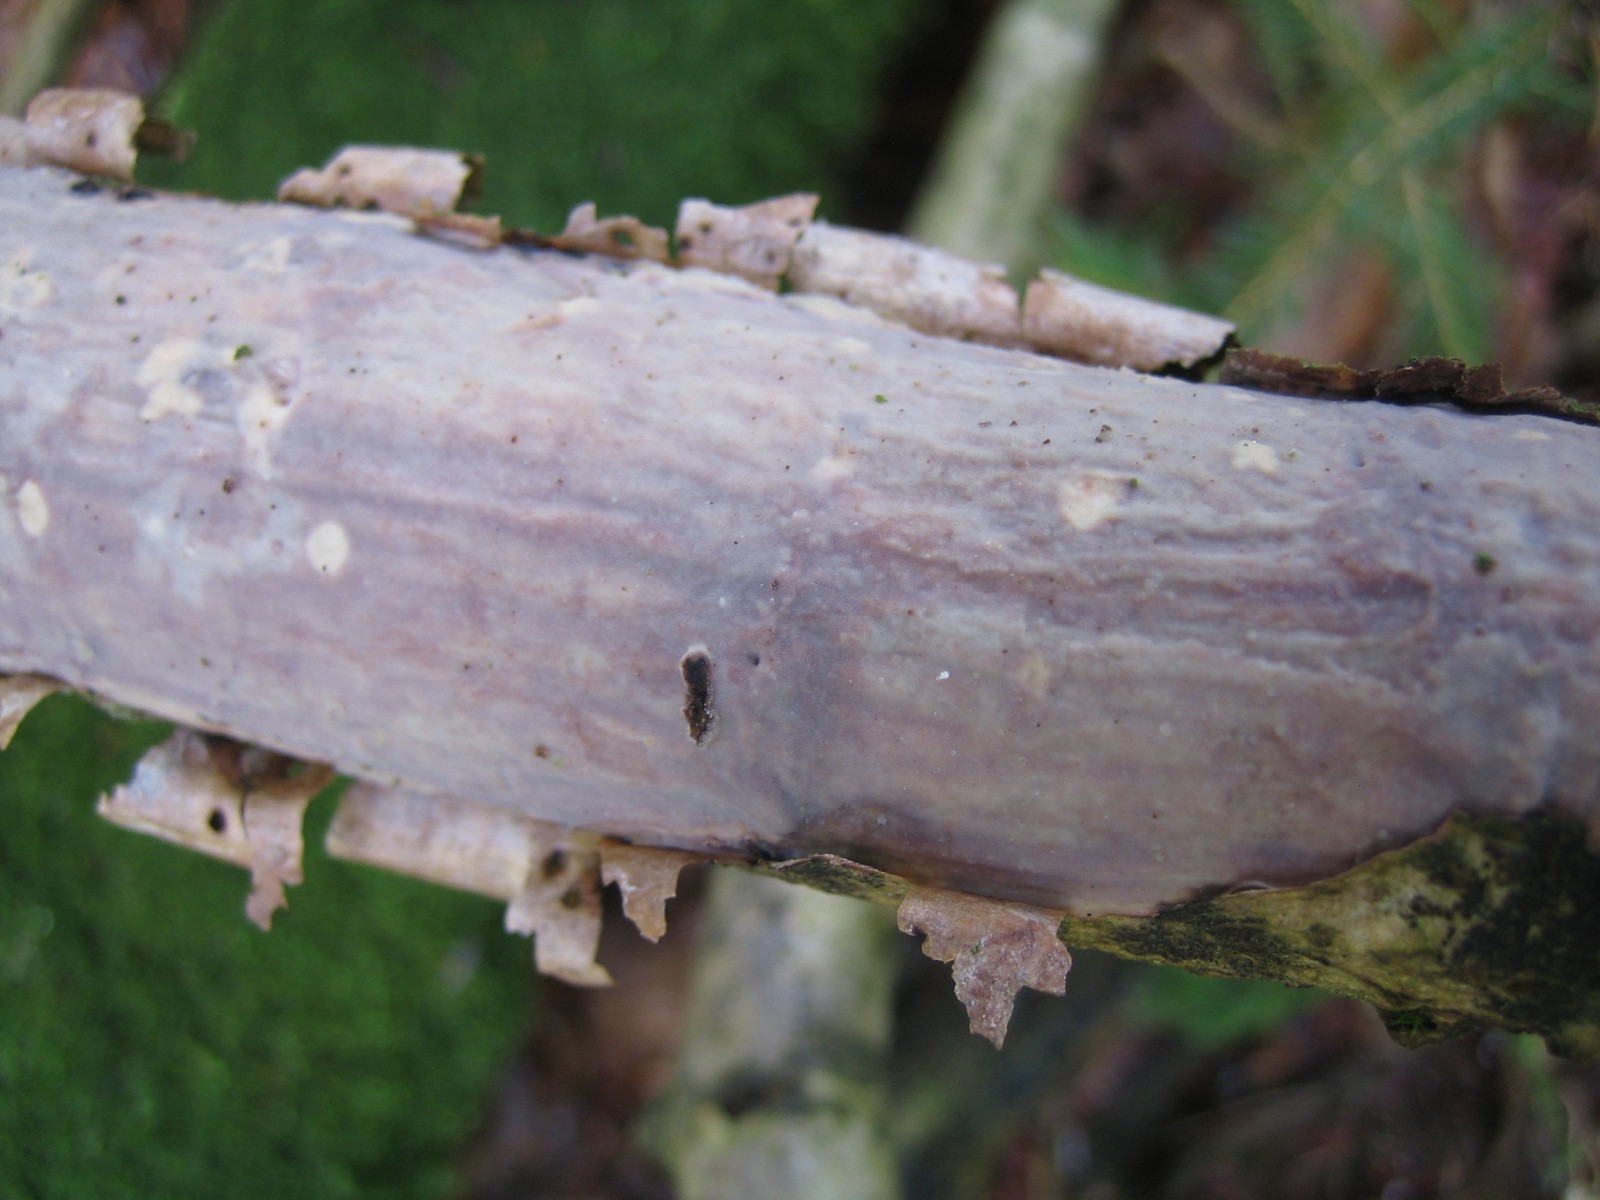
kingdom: Fungi
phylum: Basidiomycota
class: Agaricomycetes
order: Corticiales
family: Vuilleminiaceae
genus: Vuilleminia
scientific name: Vuilleminia comedens
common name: almindelig barksprænger
